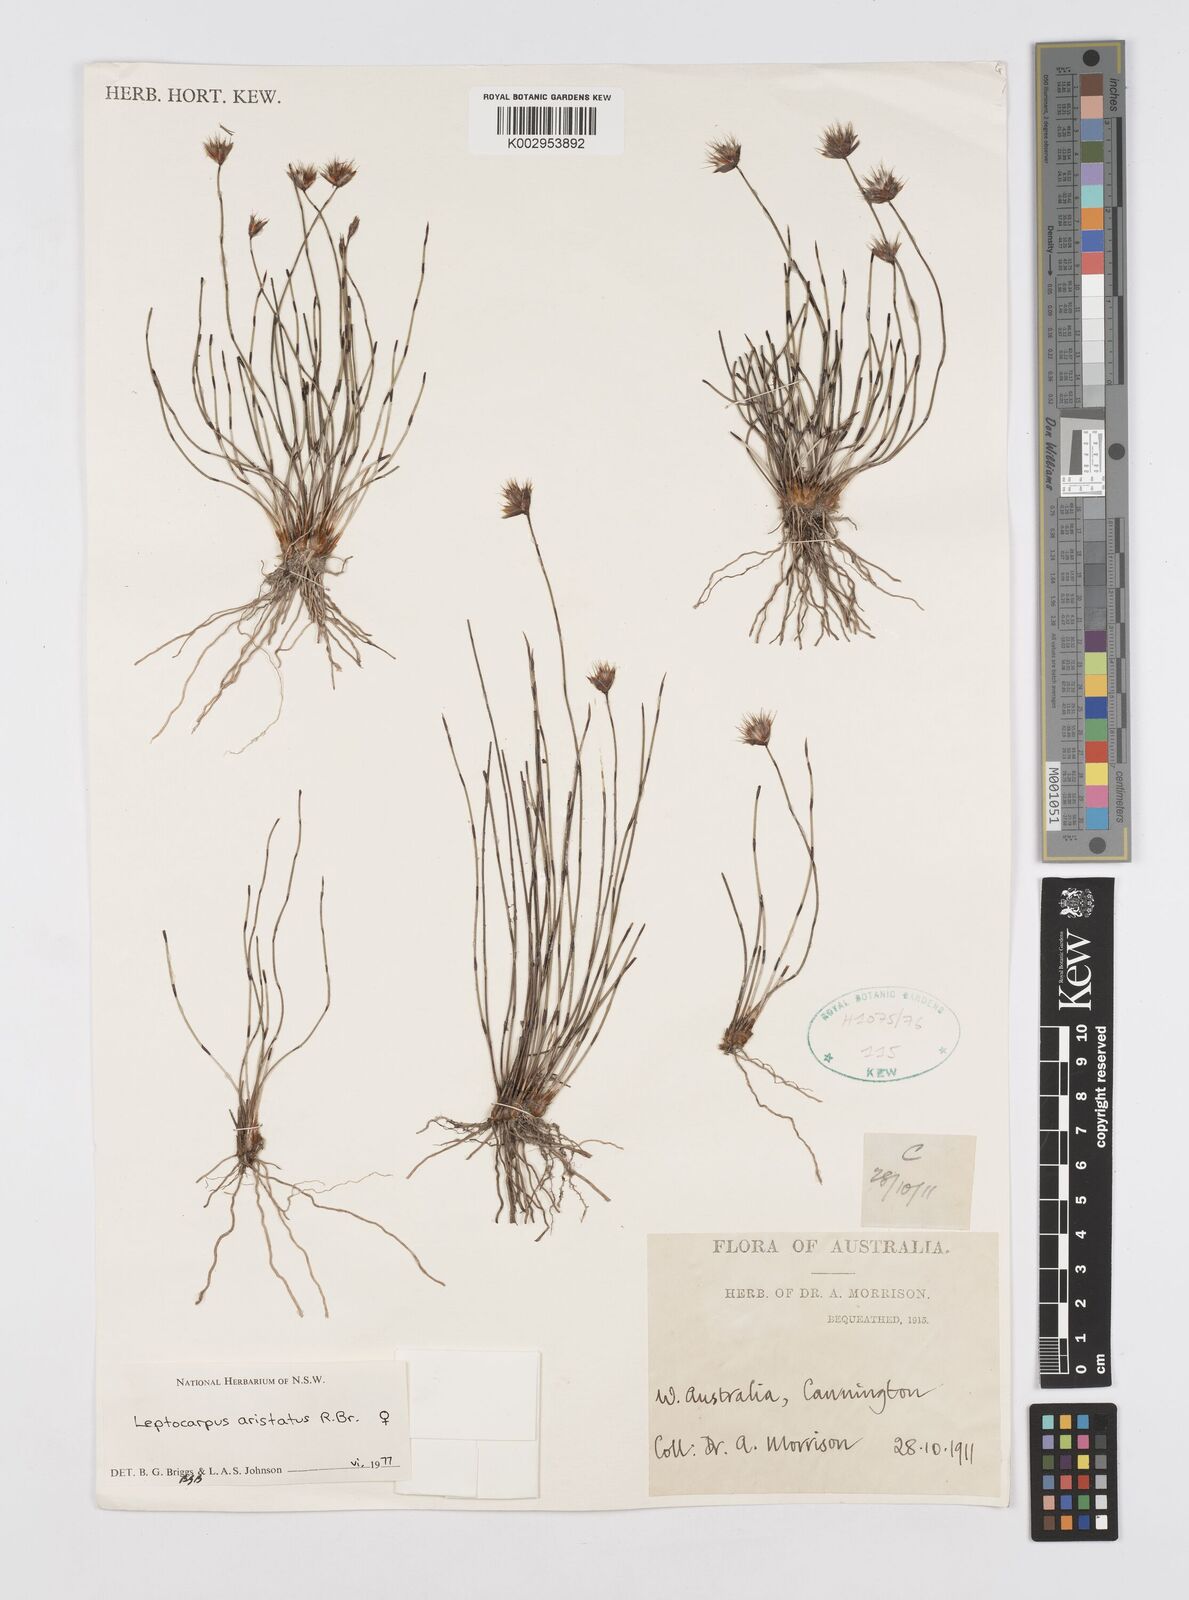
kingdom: Plantae
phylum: Tracheophyta
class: Liliopsida
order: Poales
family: Restionaceae
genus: Chaetanthus
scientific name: Chaetanthus aristatus
